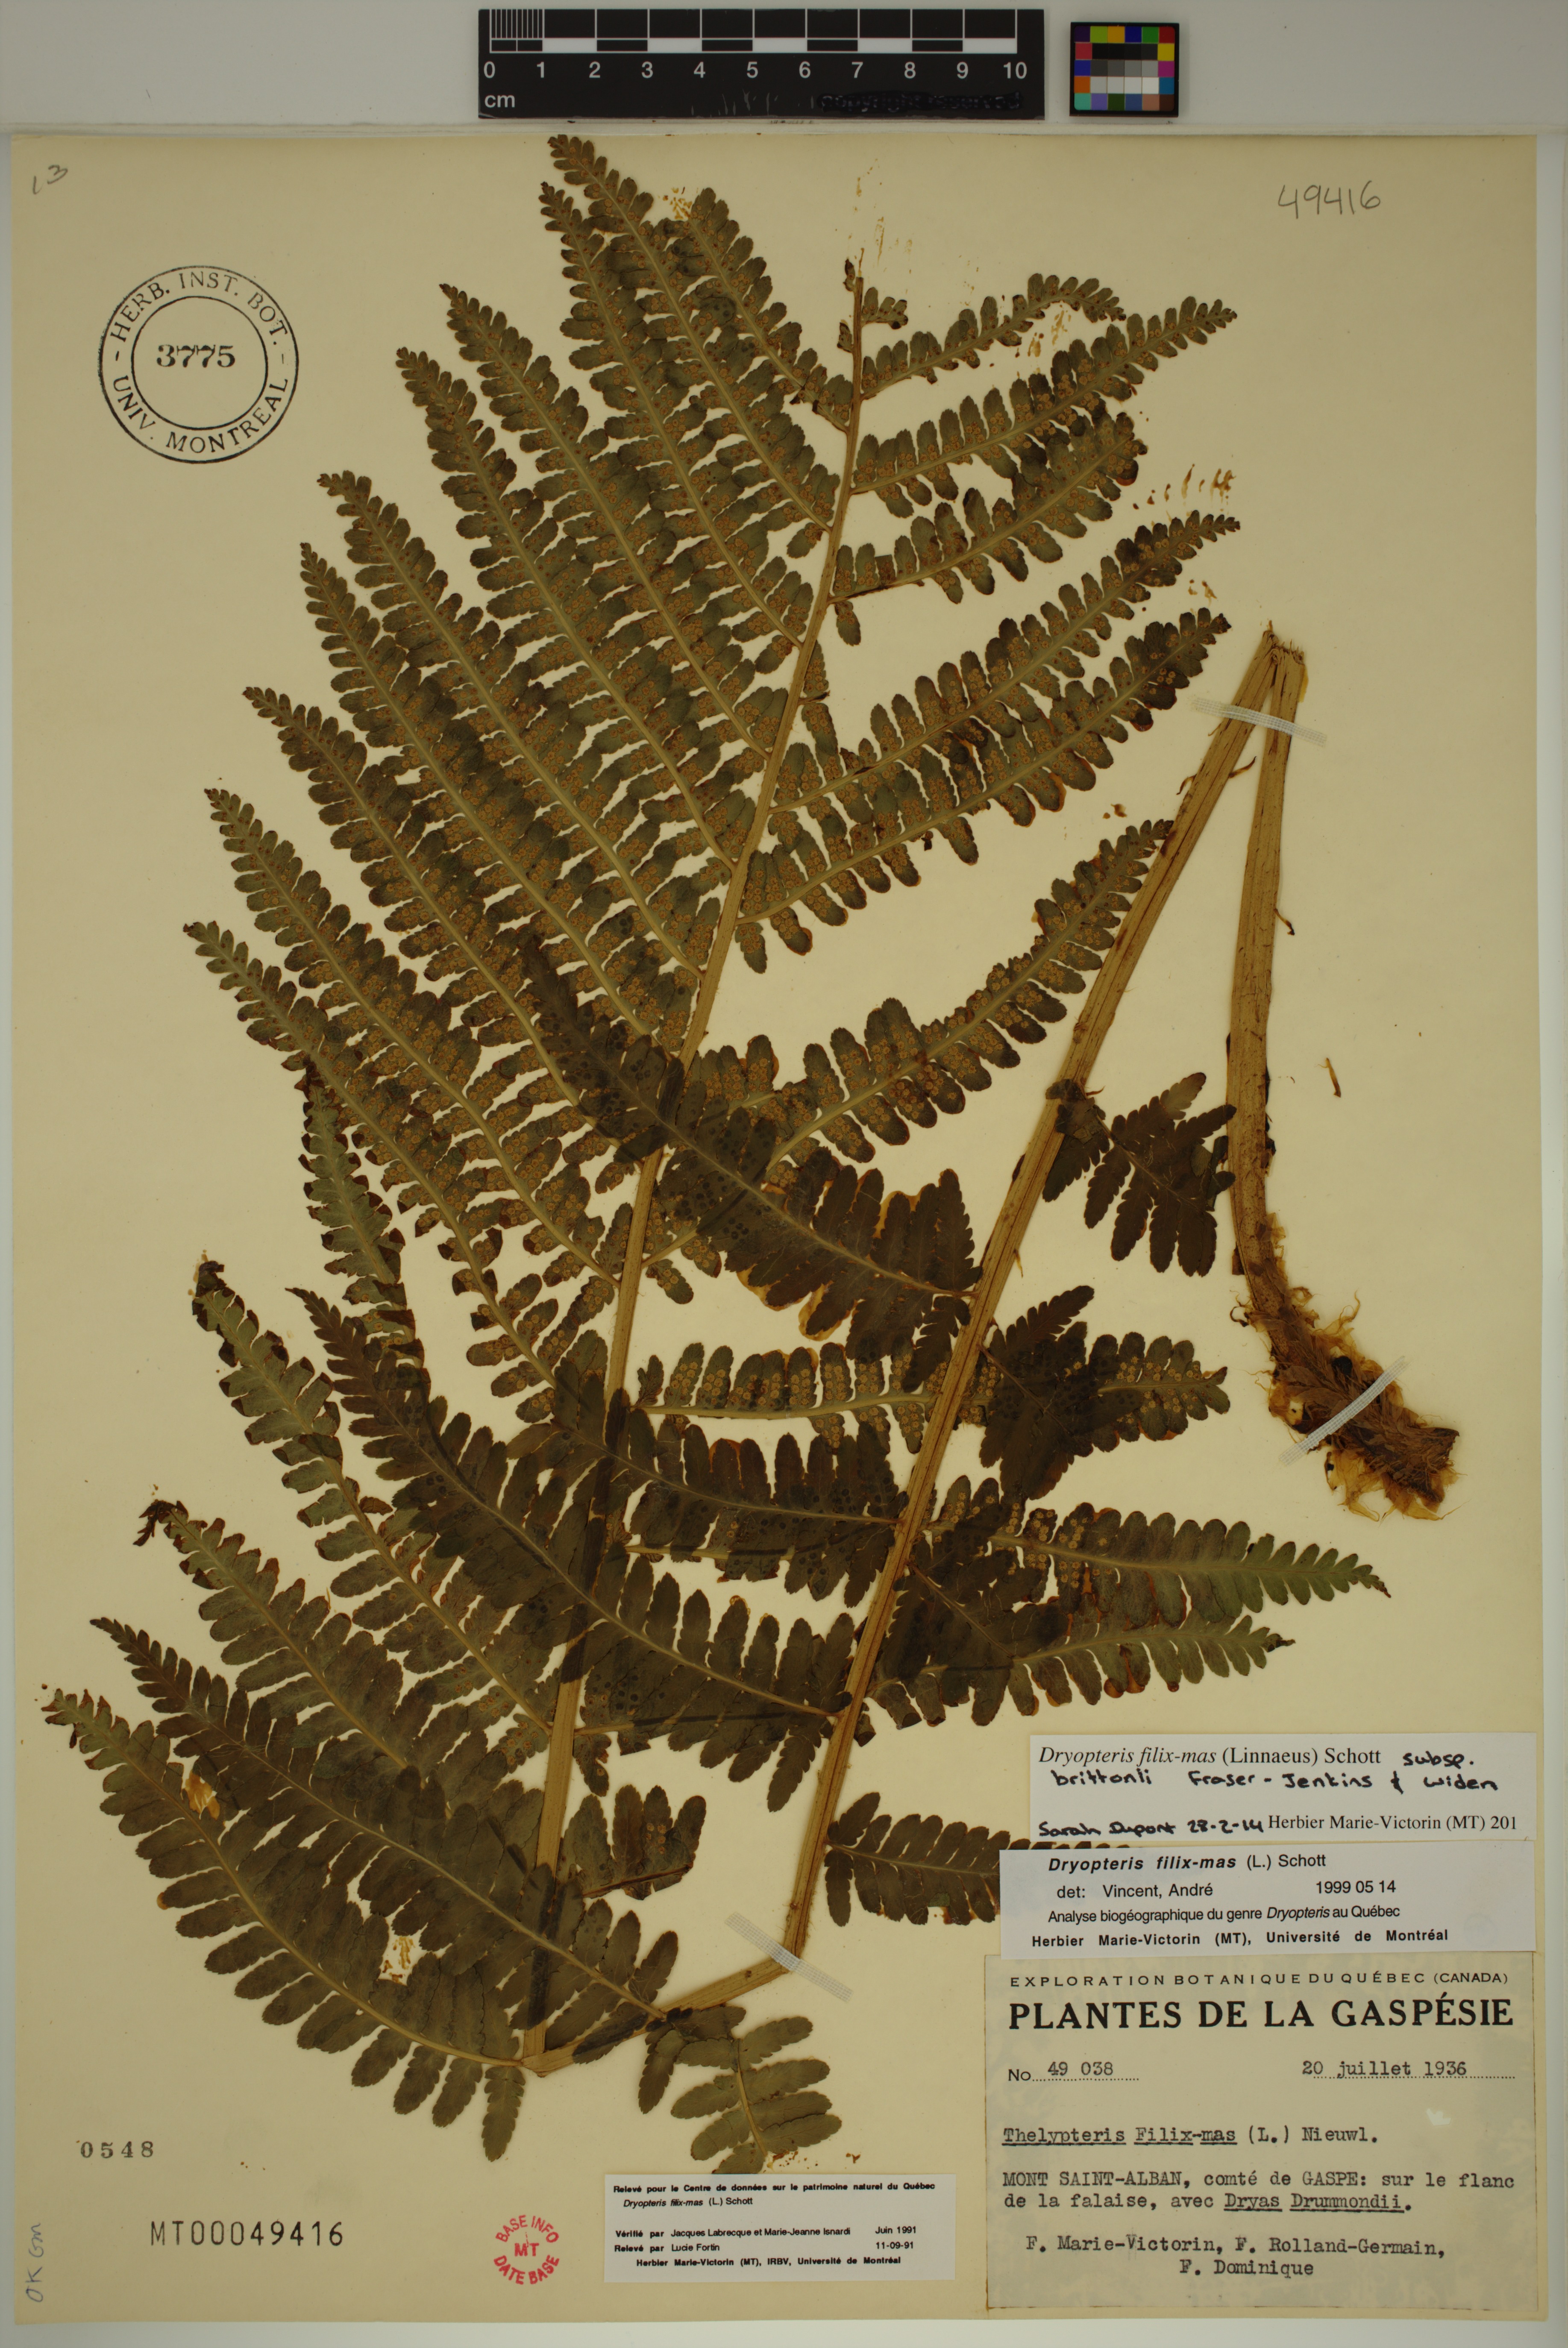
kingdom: Plantae
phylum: Tracheophyta
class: Polypodiopsida
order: Polypodiales
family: Dryopteridaceae
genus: Dryopteris
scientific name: Dryopteris filix-mas
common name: Male fern
